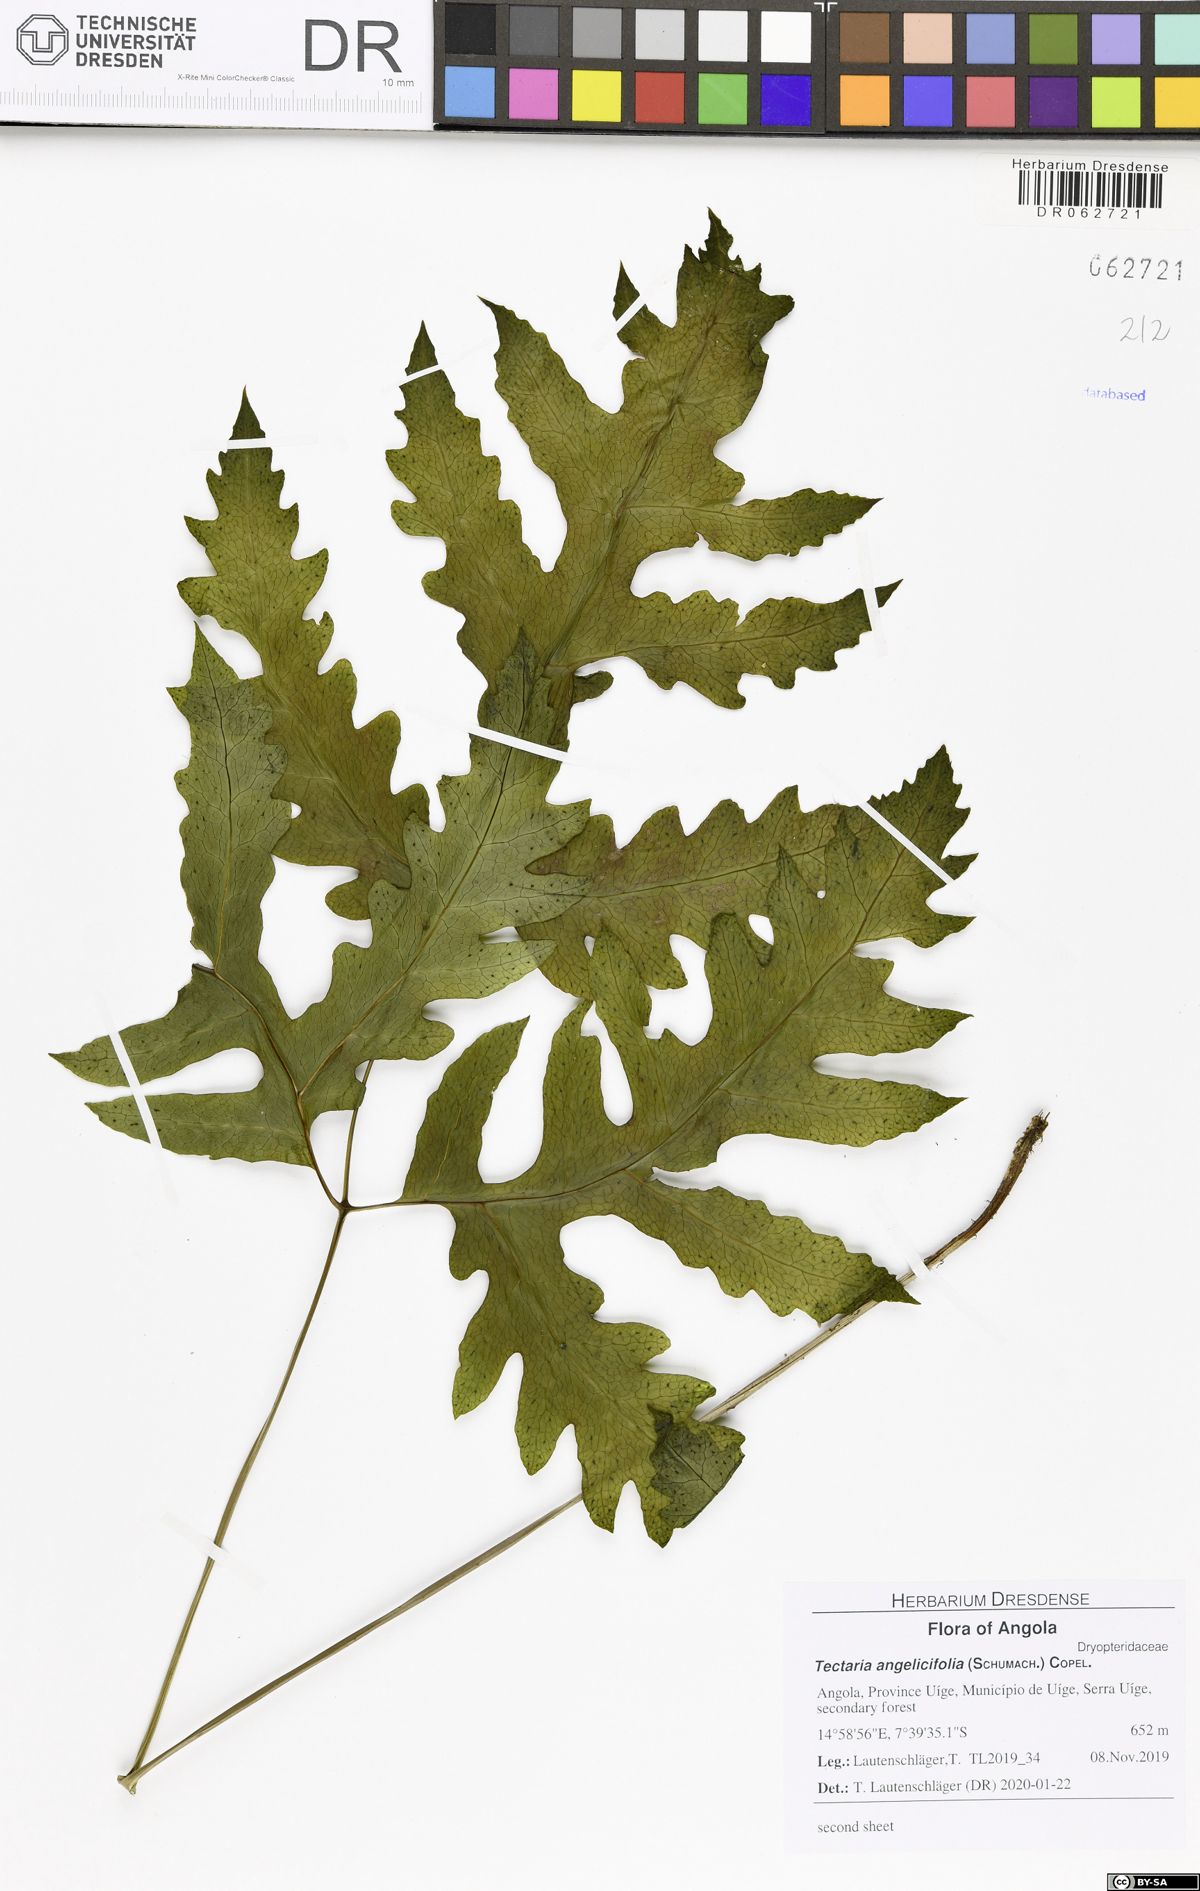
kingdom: Plantae
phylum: Tracheophyta
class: Polypodiopsida
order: Polypodiales
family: Tectariaceae
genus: Tectaria
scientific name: Tectaria angelicifolia
